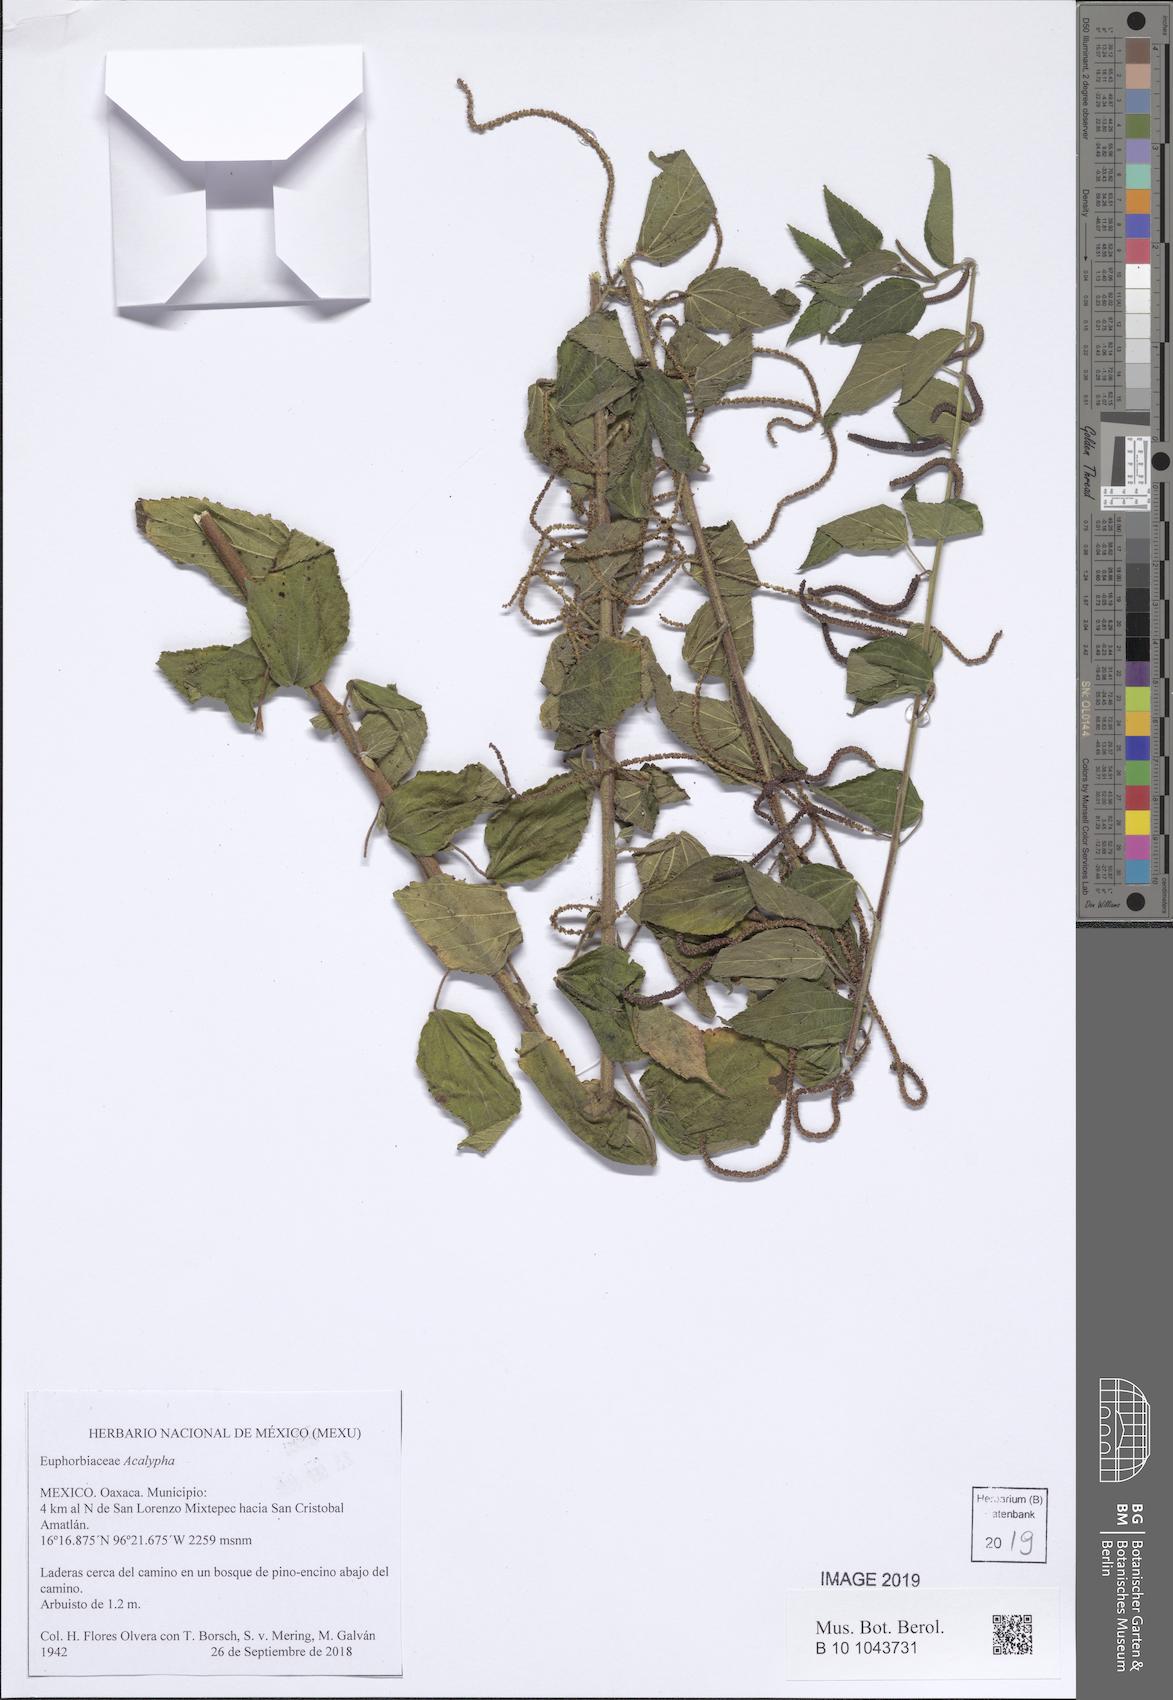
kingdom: Plantae
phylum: Tracheophyta
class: Magnoliopsida
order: Malpighiales
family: Euphorbiaceae
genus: Acalypha
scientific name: Acalypha
